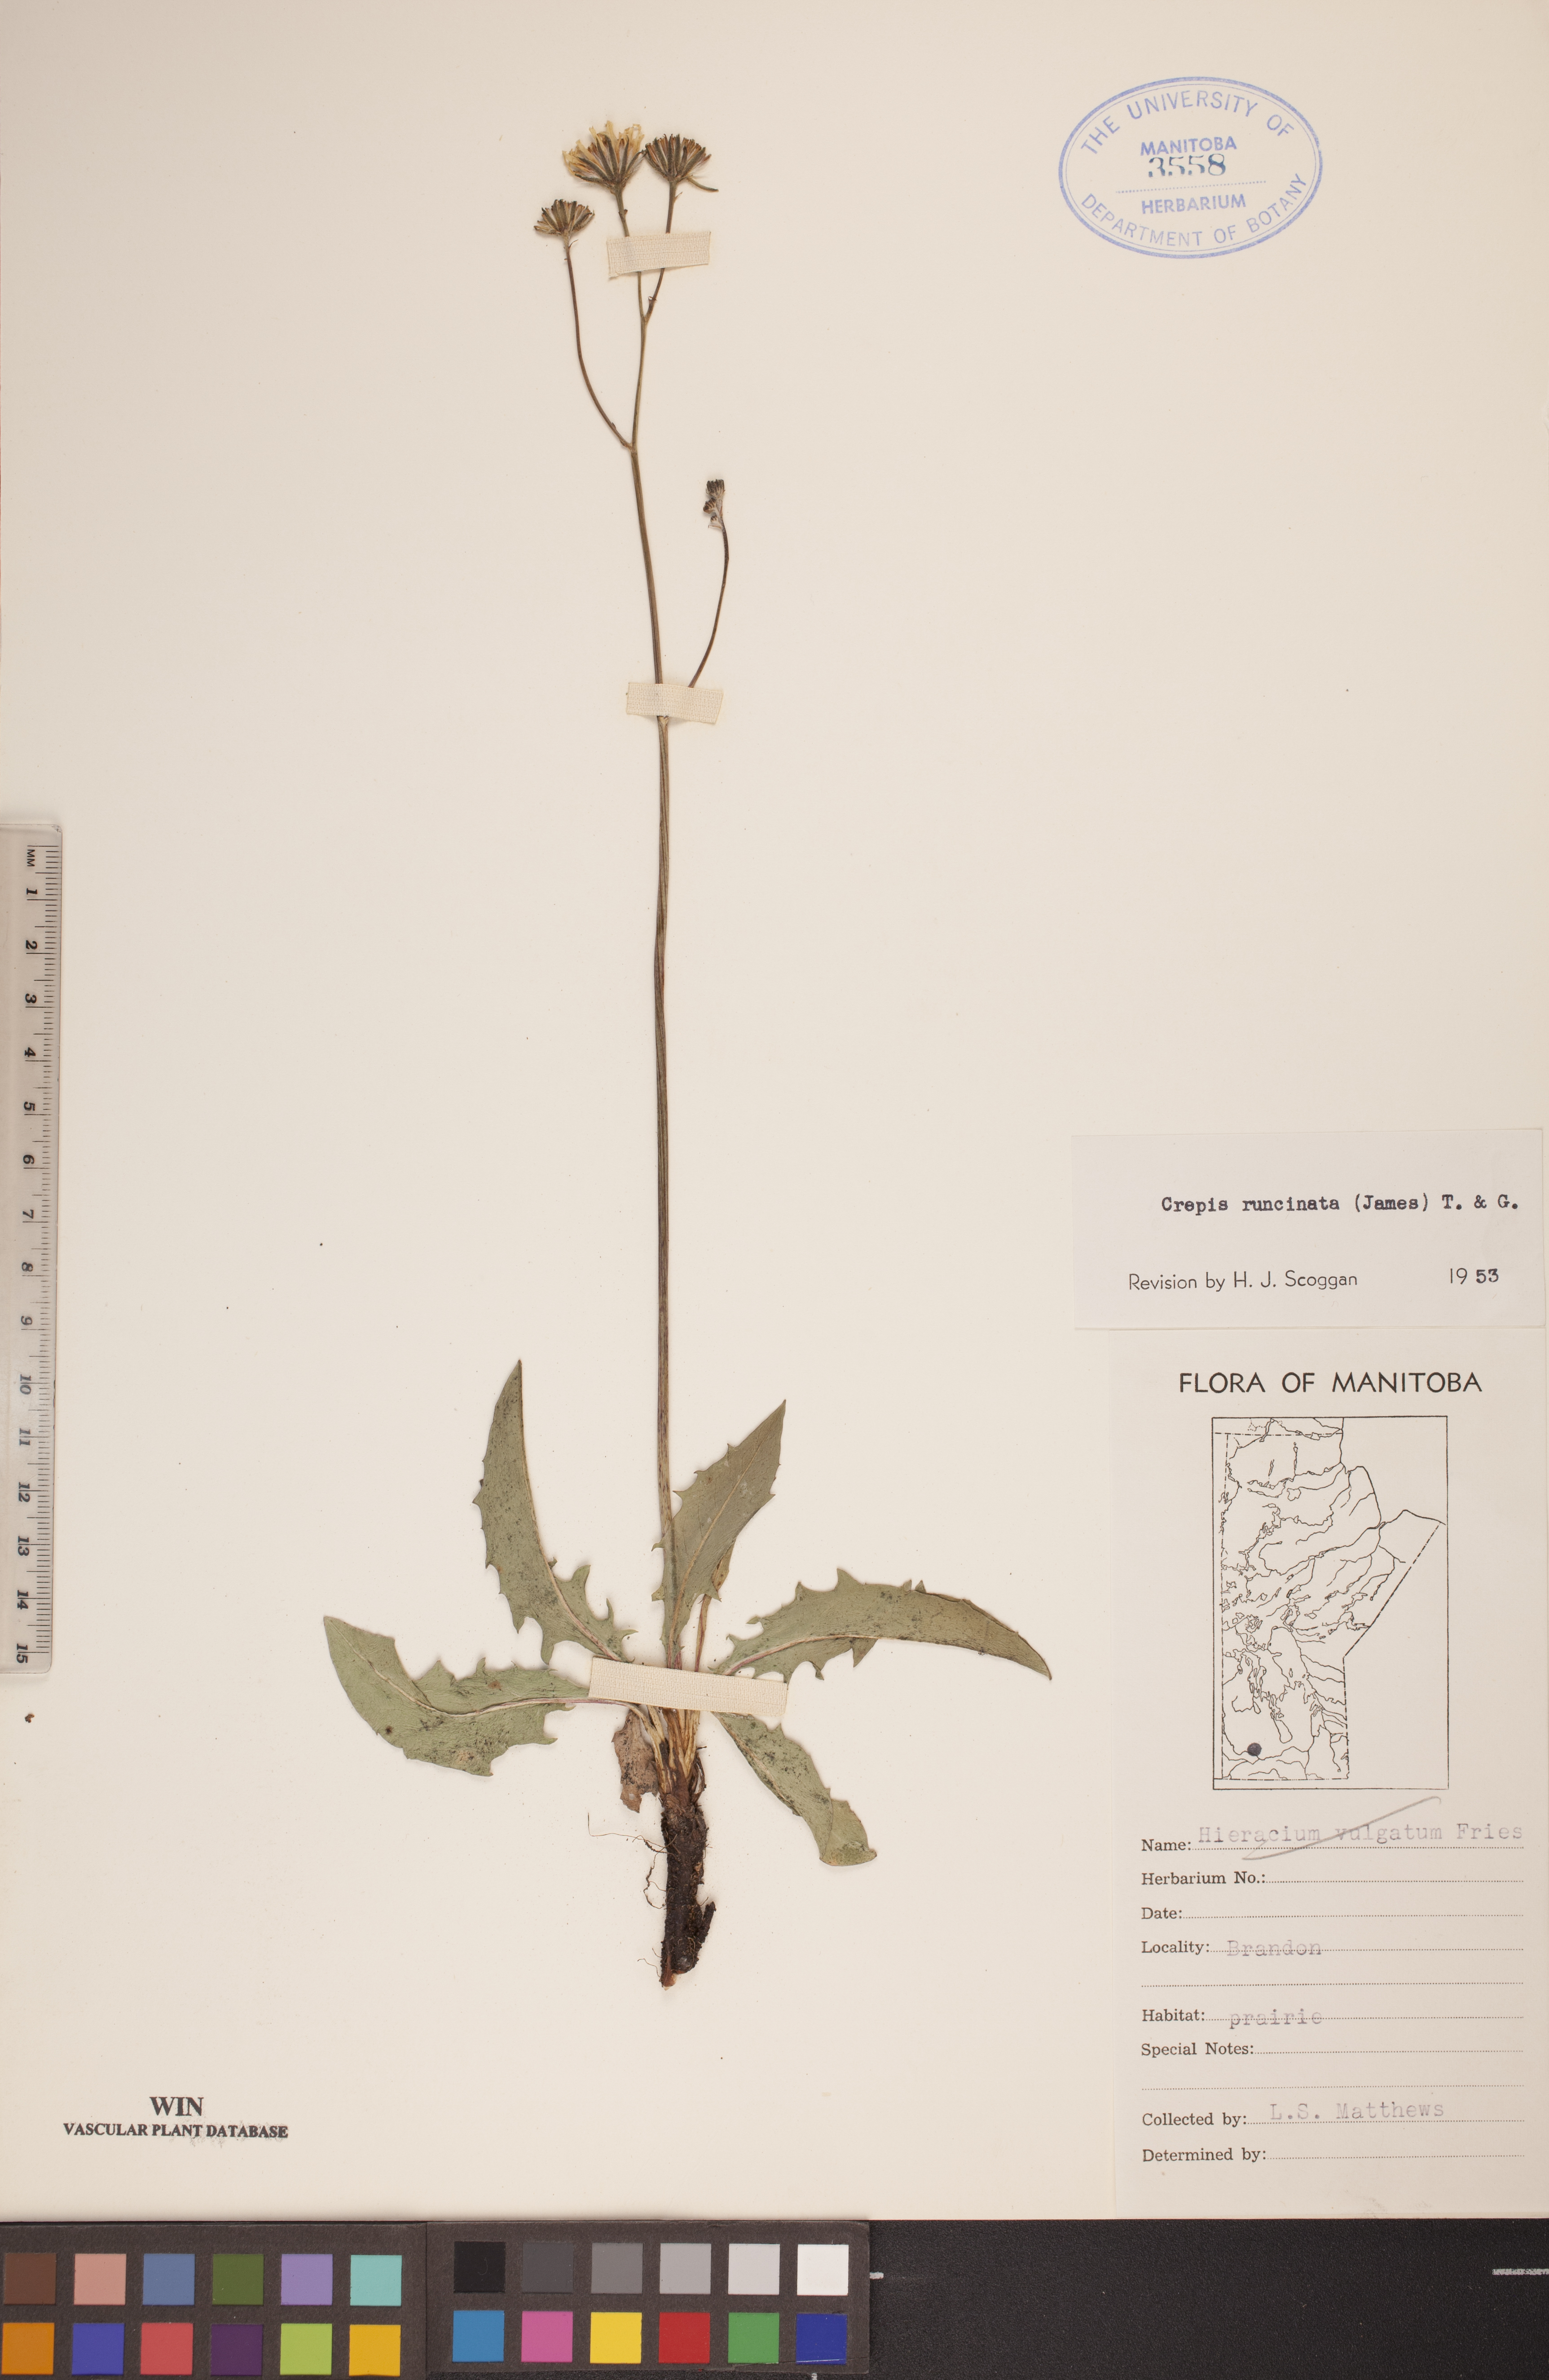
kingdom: Plantae
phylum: Tracheophyta
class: Magnoliopsida
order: Asterales
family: Asteraceae
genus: Crepis
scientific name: Crepis runcinata
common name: Dandelion hawksbeard
